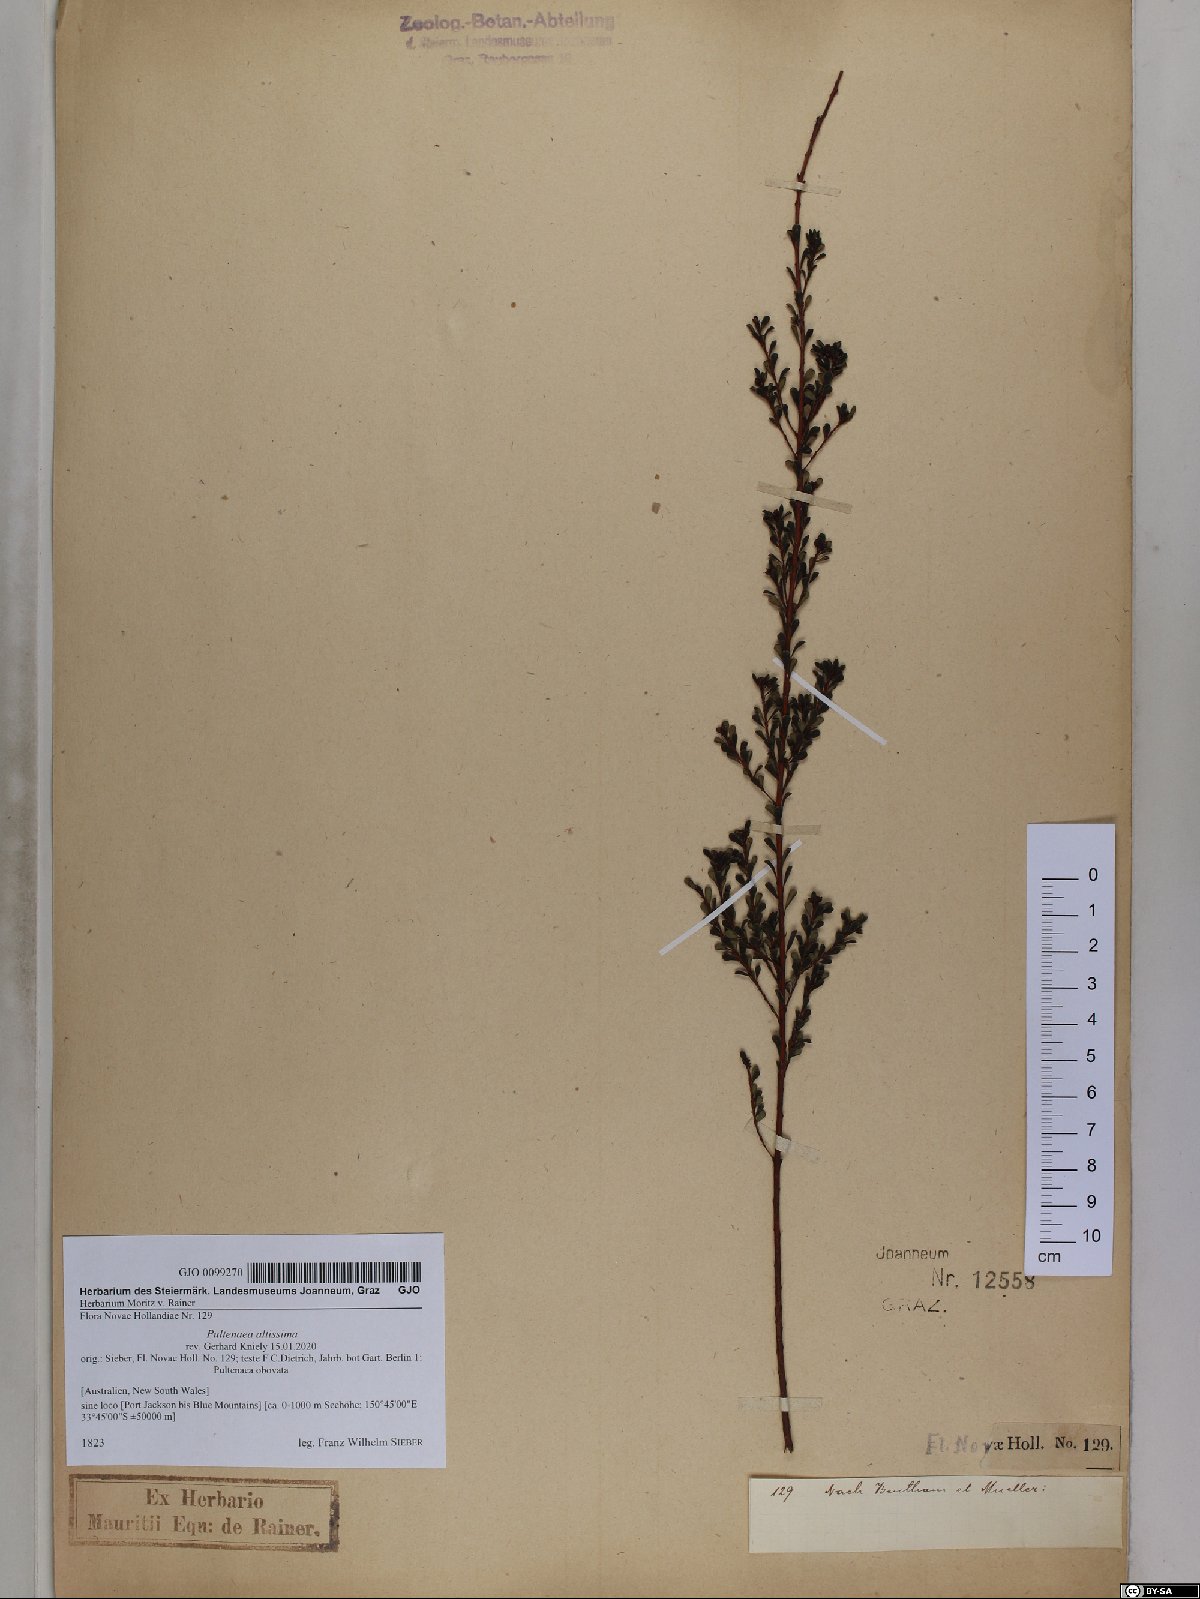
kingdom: Plantae
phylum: Tracheophyta
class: Magnoliopsida
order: Fabales
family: Fabaceae
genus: Pultenaea
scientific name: Pultenaea altissima
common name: Tall bush-pea
